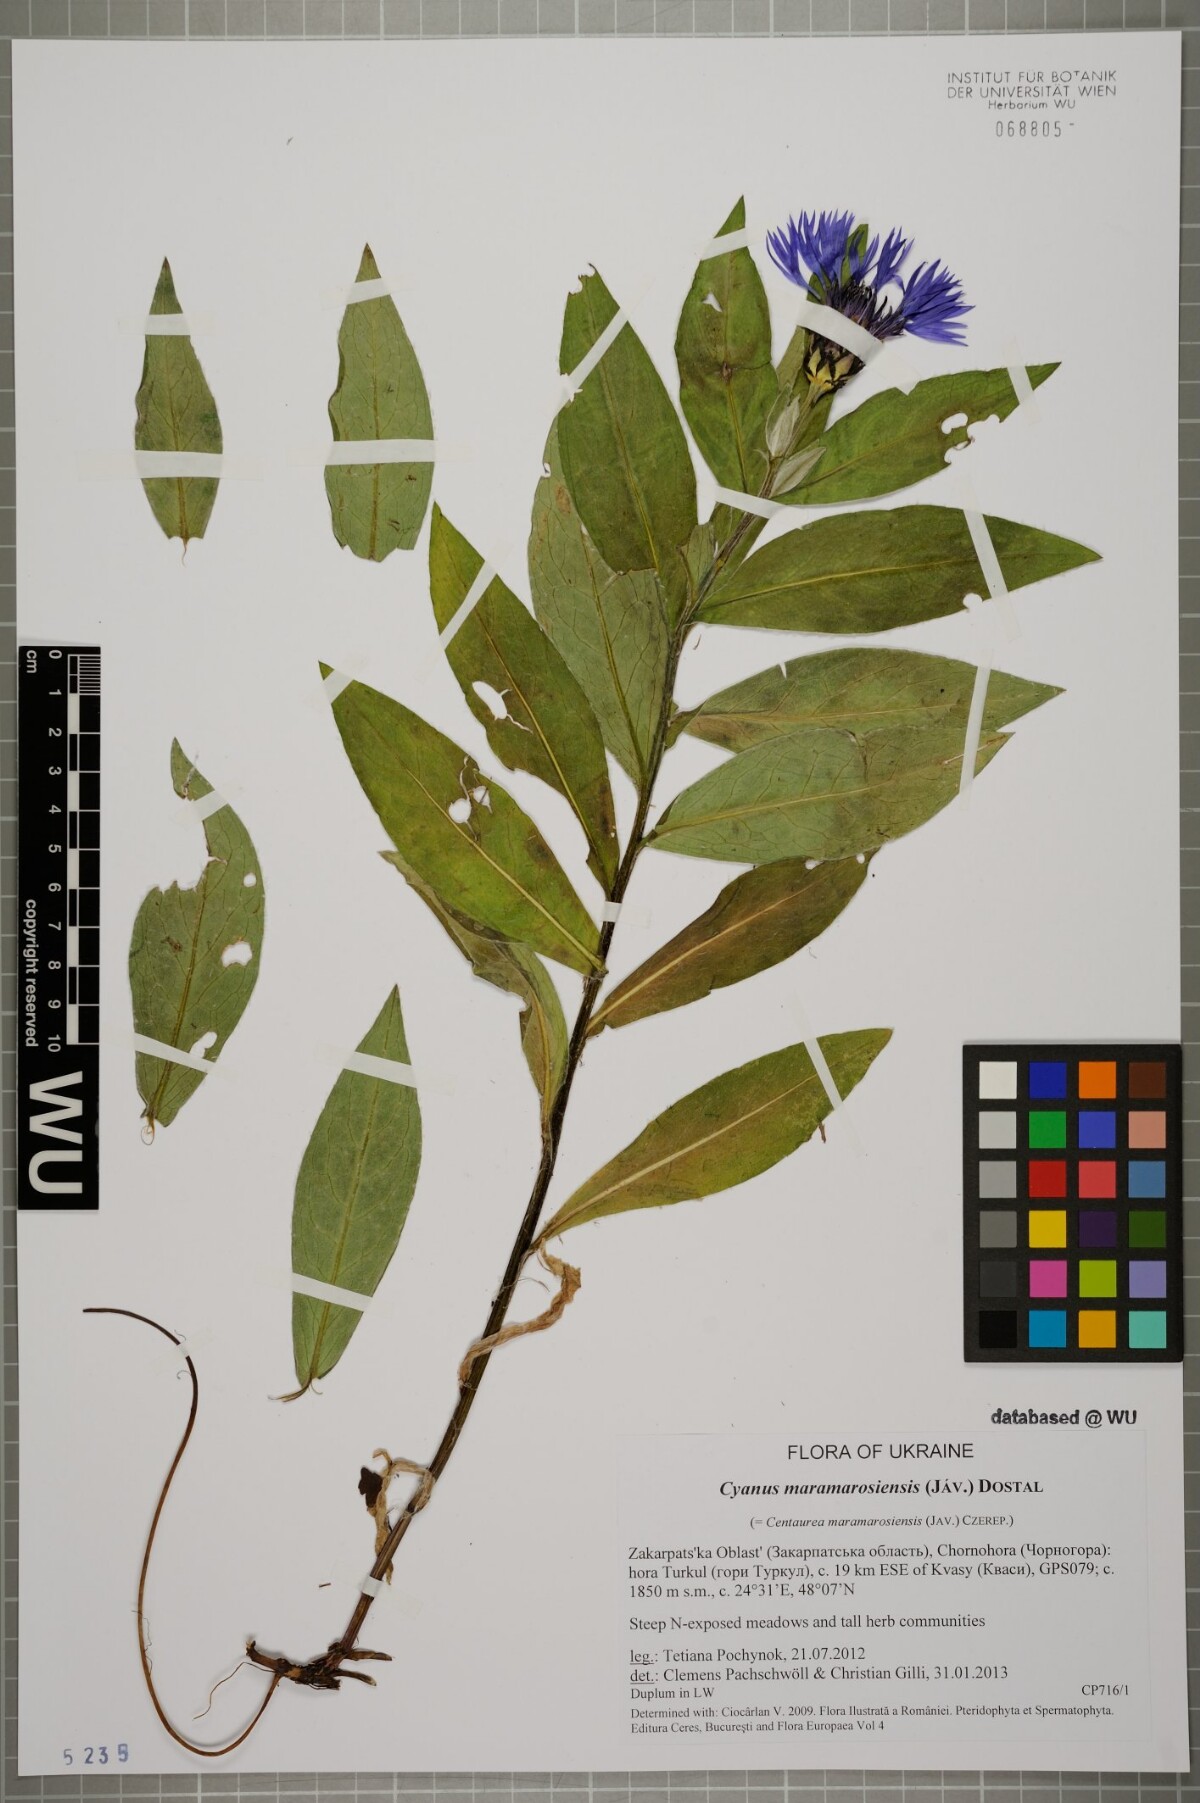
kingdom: Plantae
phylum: Tracheophyta
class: Magnoliopsida
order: Asterales
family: Asteraceae
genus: Centaurea
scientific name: Centaurea triumfettii
